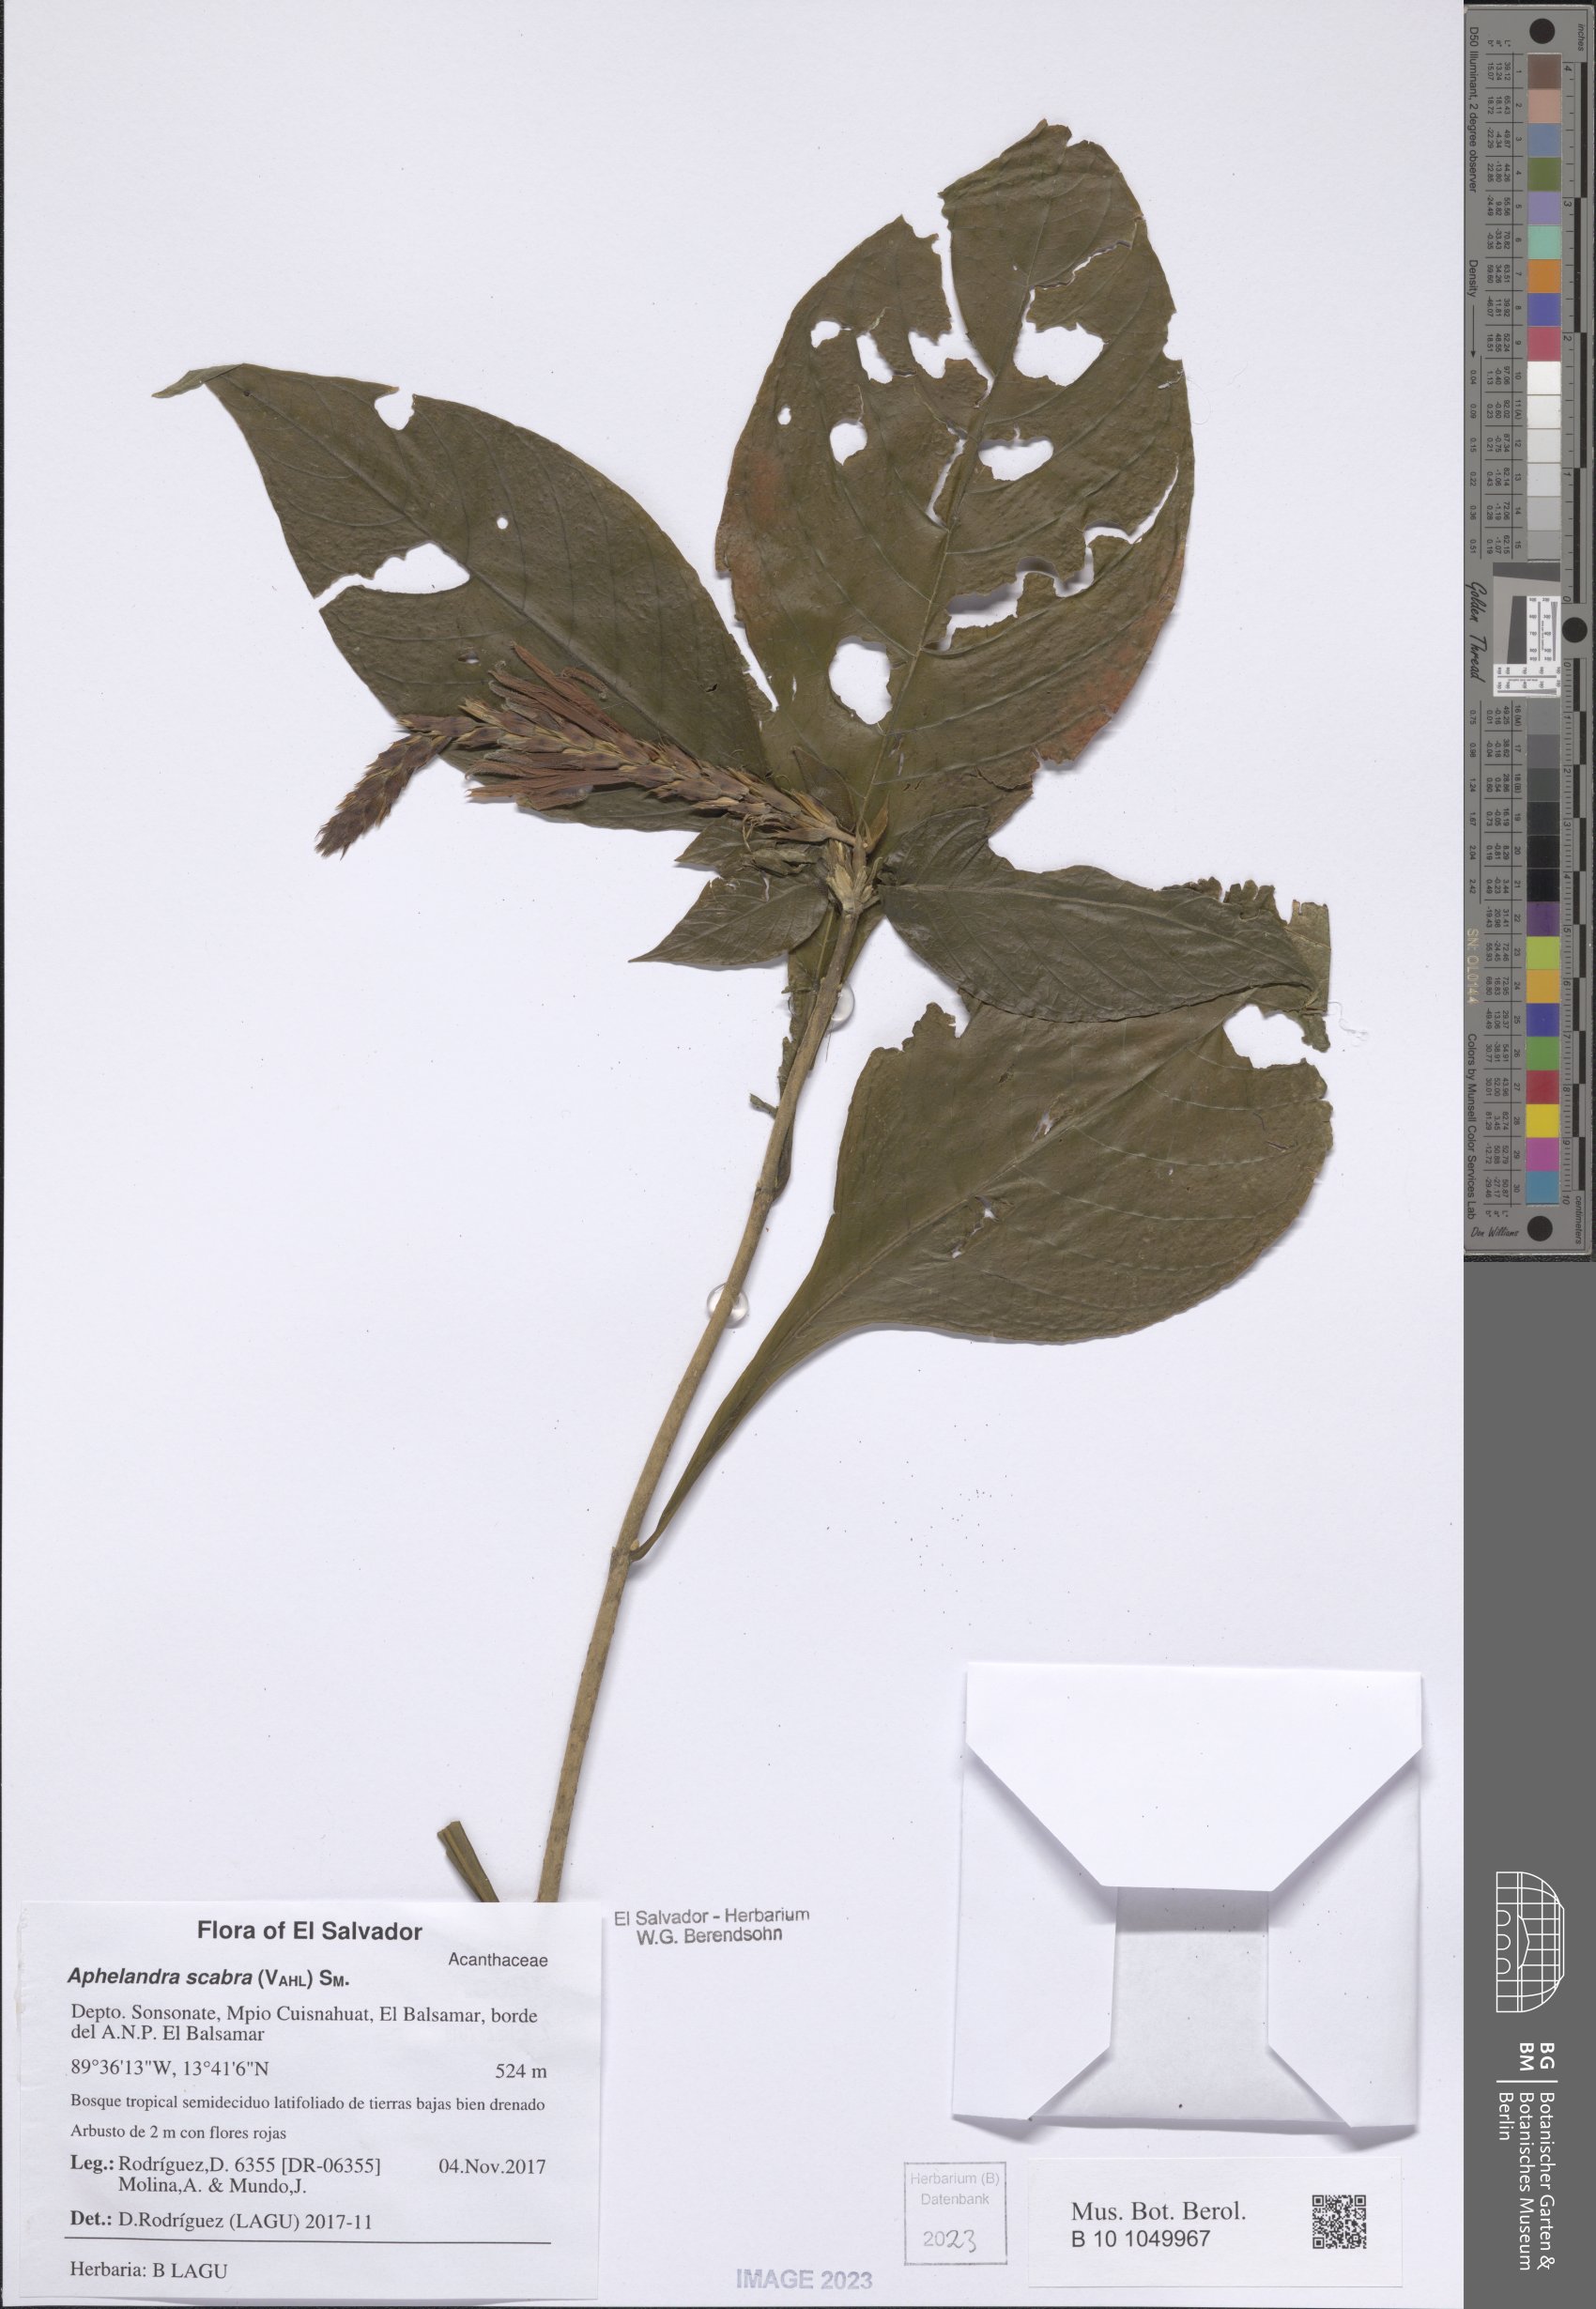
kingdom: Plantae
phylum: Tracheophyta
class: Magnoliopsida
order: Lamiales
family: Acanthaceae
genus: Aphelandra
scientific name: Aphelandra scabra
